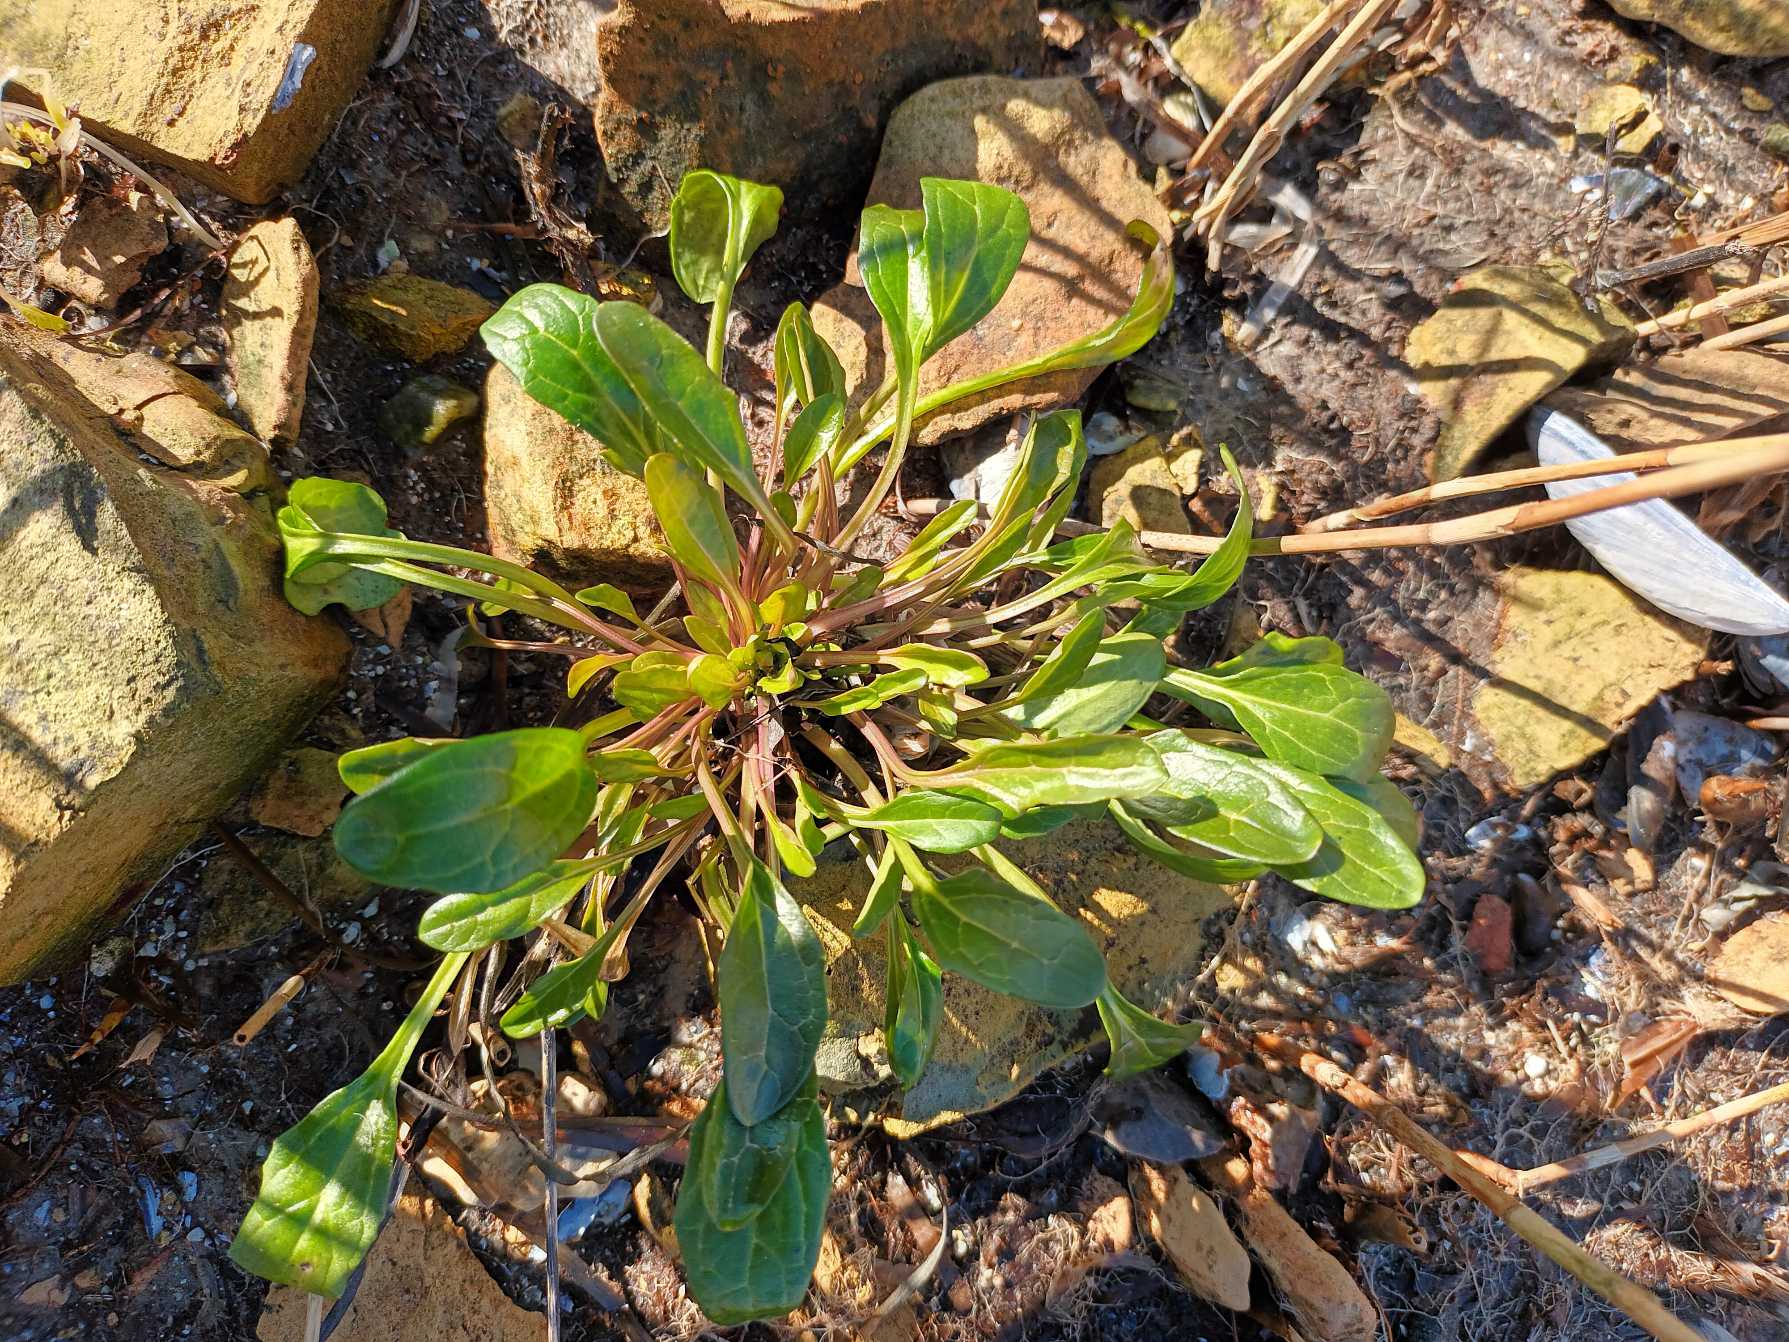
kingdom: Plantae
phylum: Tracheophyta
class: Magnoliopsida
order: Brassicales
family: Brassicaceae
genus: Cochlearia
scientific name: Cochlearia anglica
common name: Engelsk kokleare
